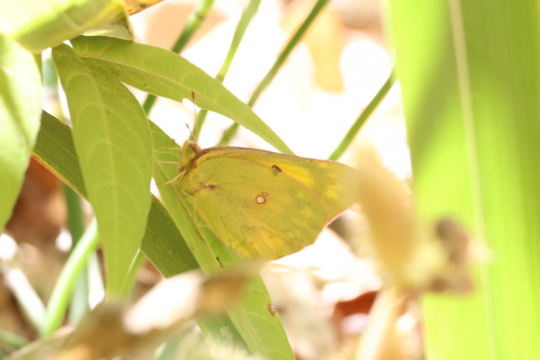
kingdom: Animalia
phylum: Arthropoda
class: Insecta
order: Lepidoptera
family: Pieridae
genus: Colias
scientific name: Colias eurytheme
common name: Orange Sulphur
